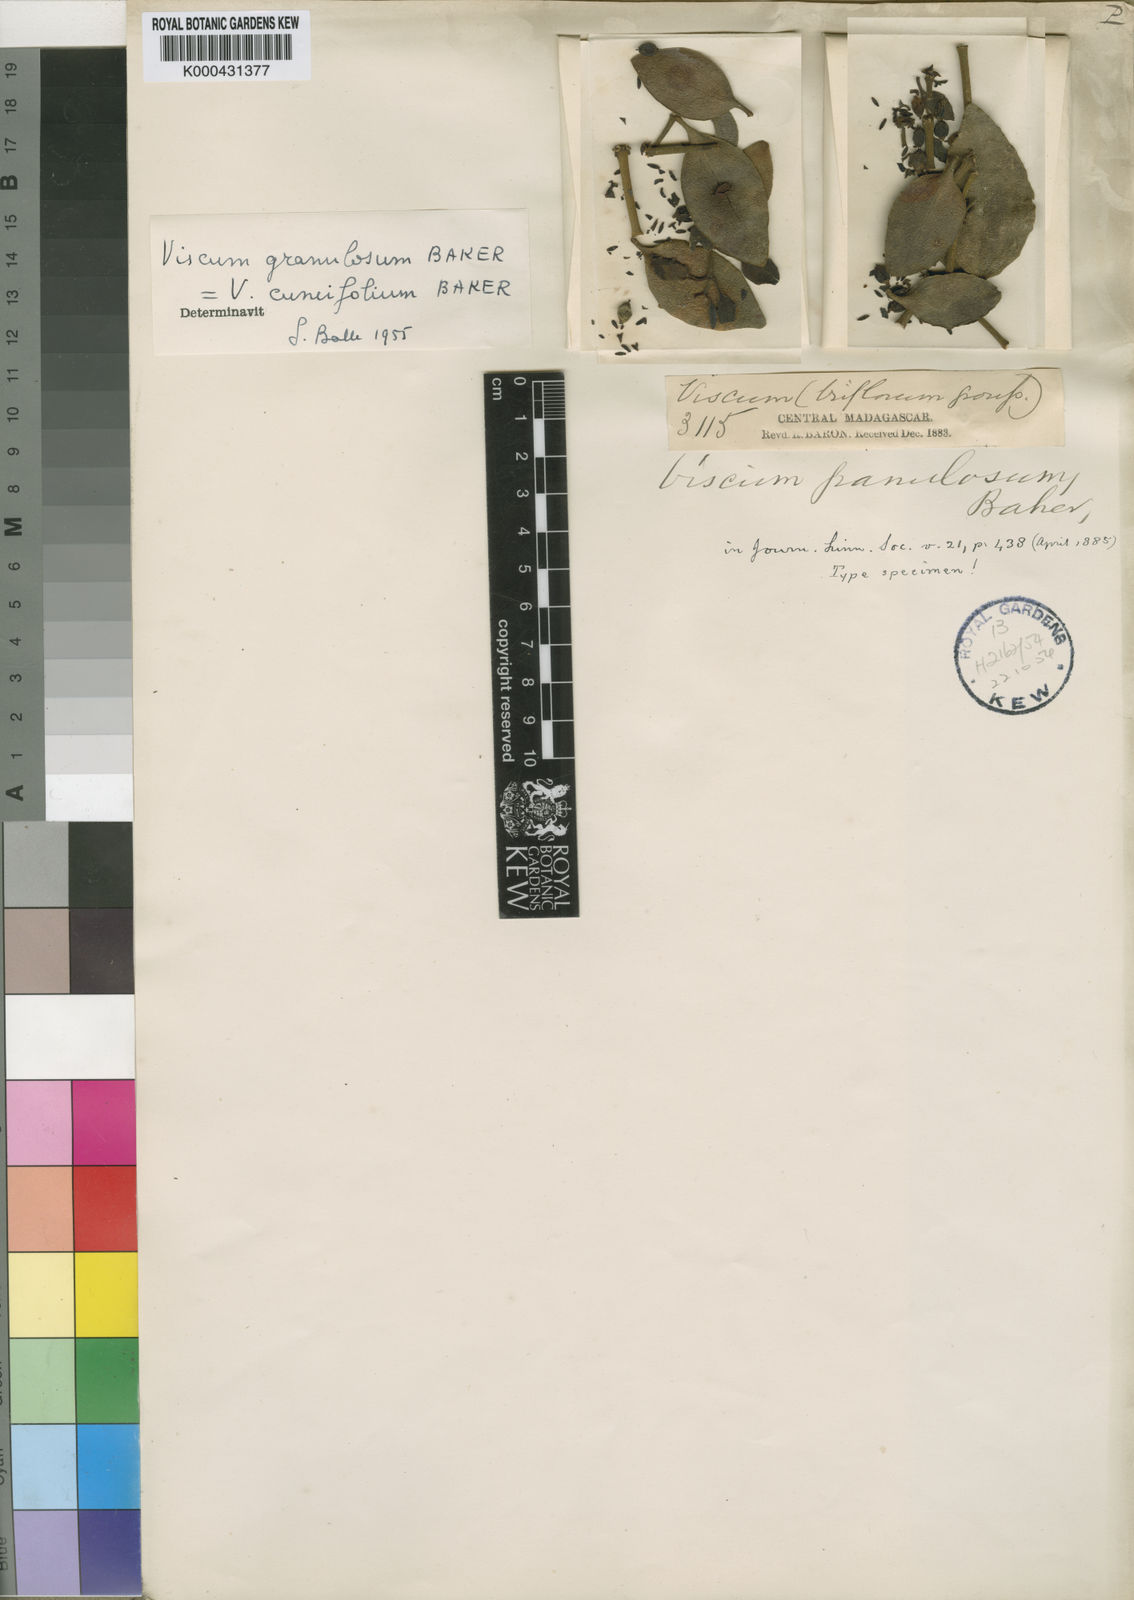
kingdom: Plantae
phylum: Tracheophyta
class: Magnoliopsida
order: Santalales
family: Viscaceae
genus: Viscum
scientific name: Viscum cuneifolium
